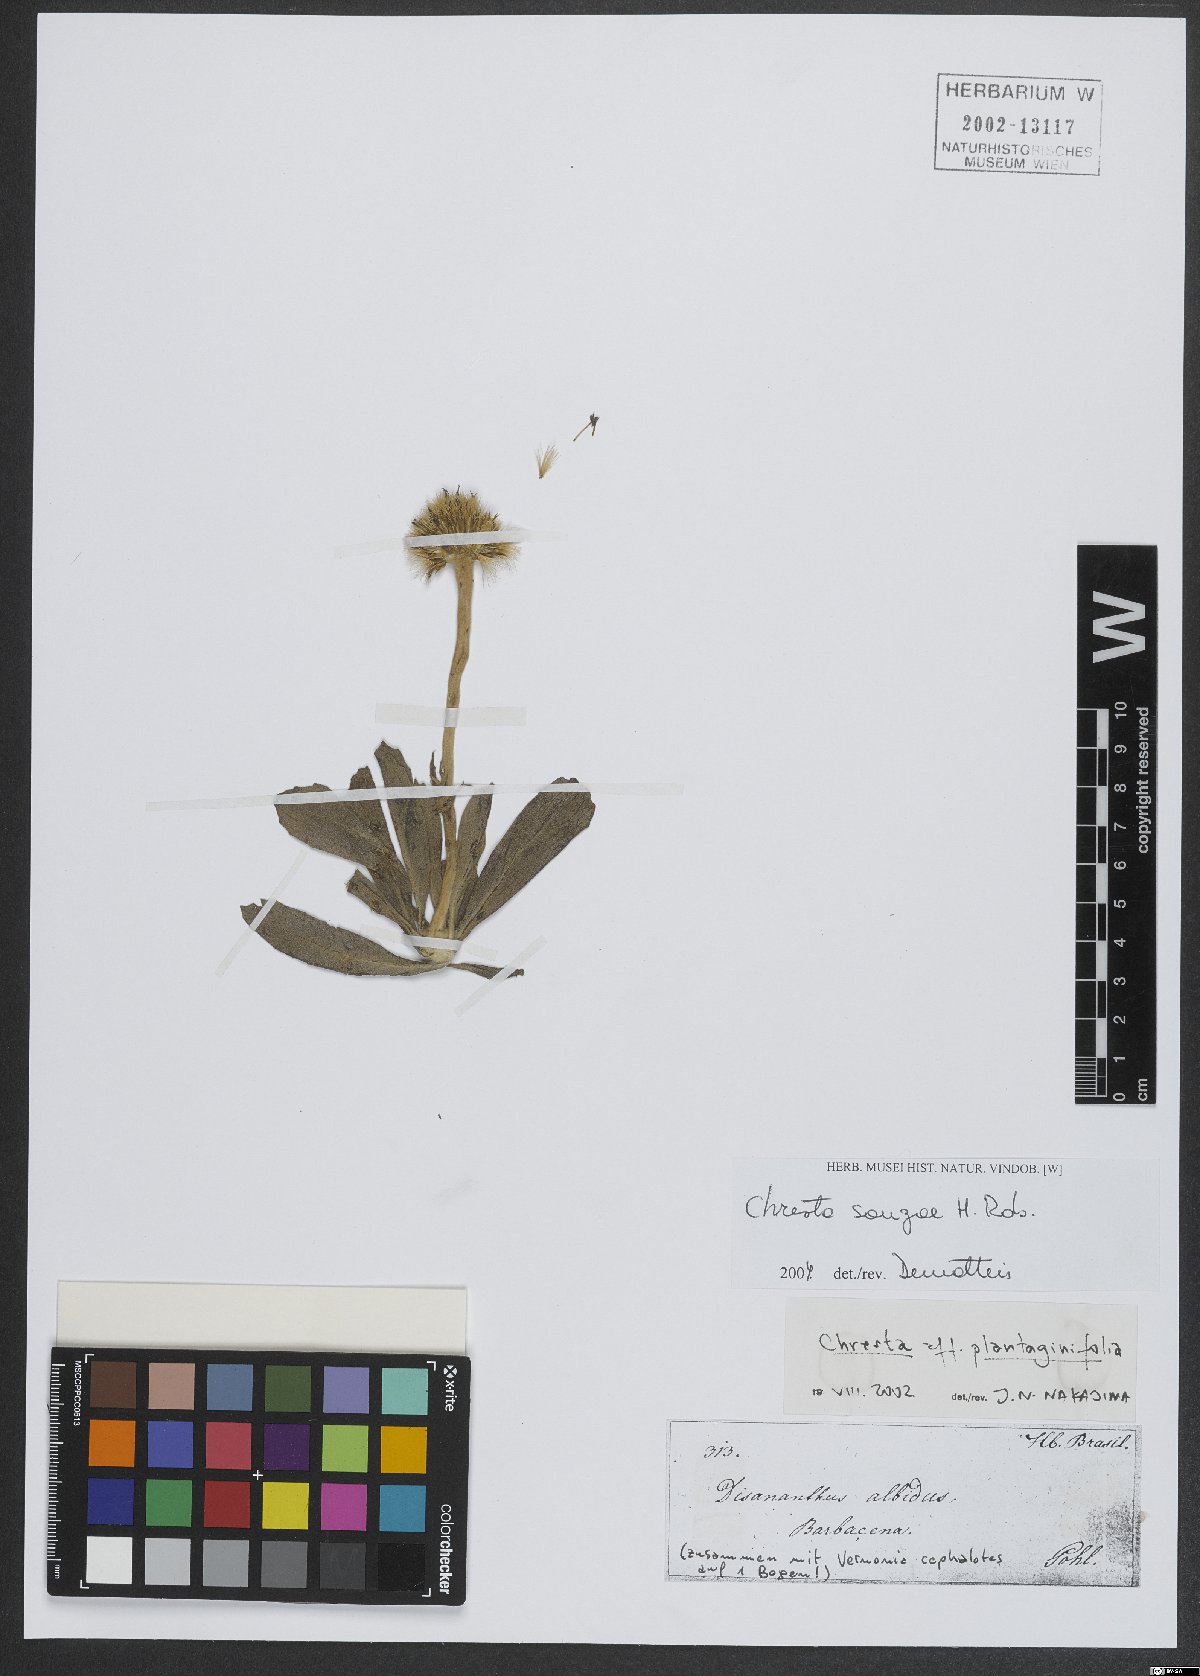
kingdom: Plantae
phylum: Tracheophyta
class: Magnoliopsida
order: Asterales
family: Asteraceae
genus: Chresta
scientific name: Chresta souzae
